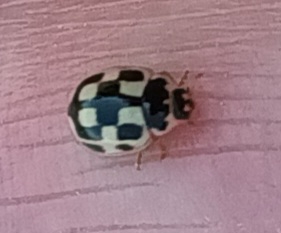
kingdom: Animalia
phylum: Arthropoda
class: Insecta
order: Coleoptera
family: Coccinellidae
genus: Propylaea
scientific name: Propylaea quatuordecimpunctata
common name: Skakbræt
